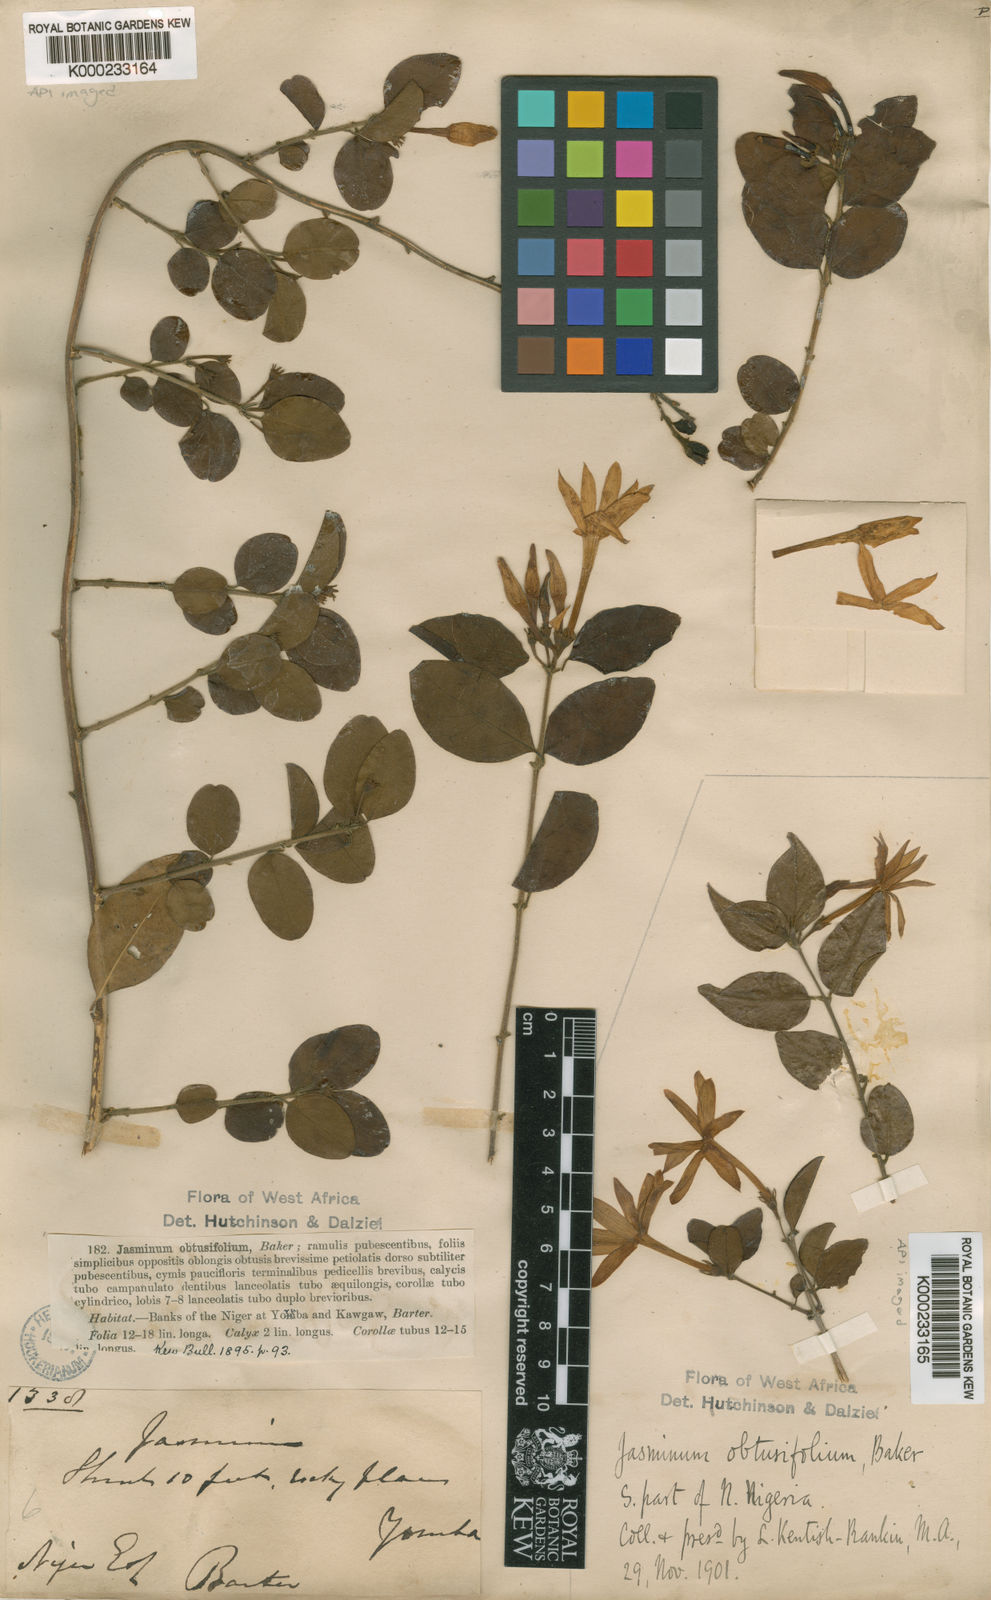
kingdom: Plantae
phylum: Tracheophyta
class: Magnoliopsida
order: Lamiales
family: Oleaceae
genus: Jasminum
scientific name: Jasminum obtusifolium
